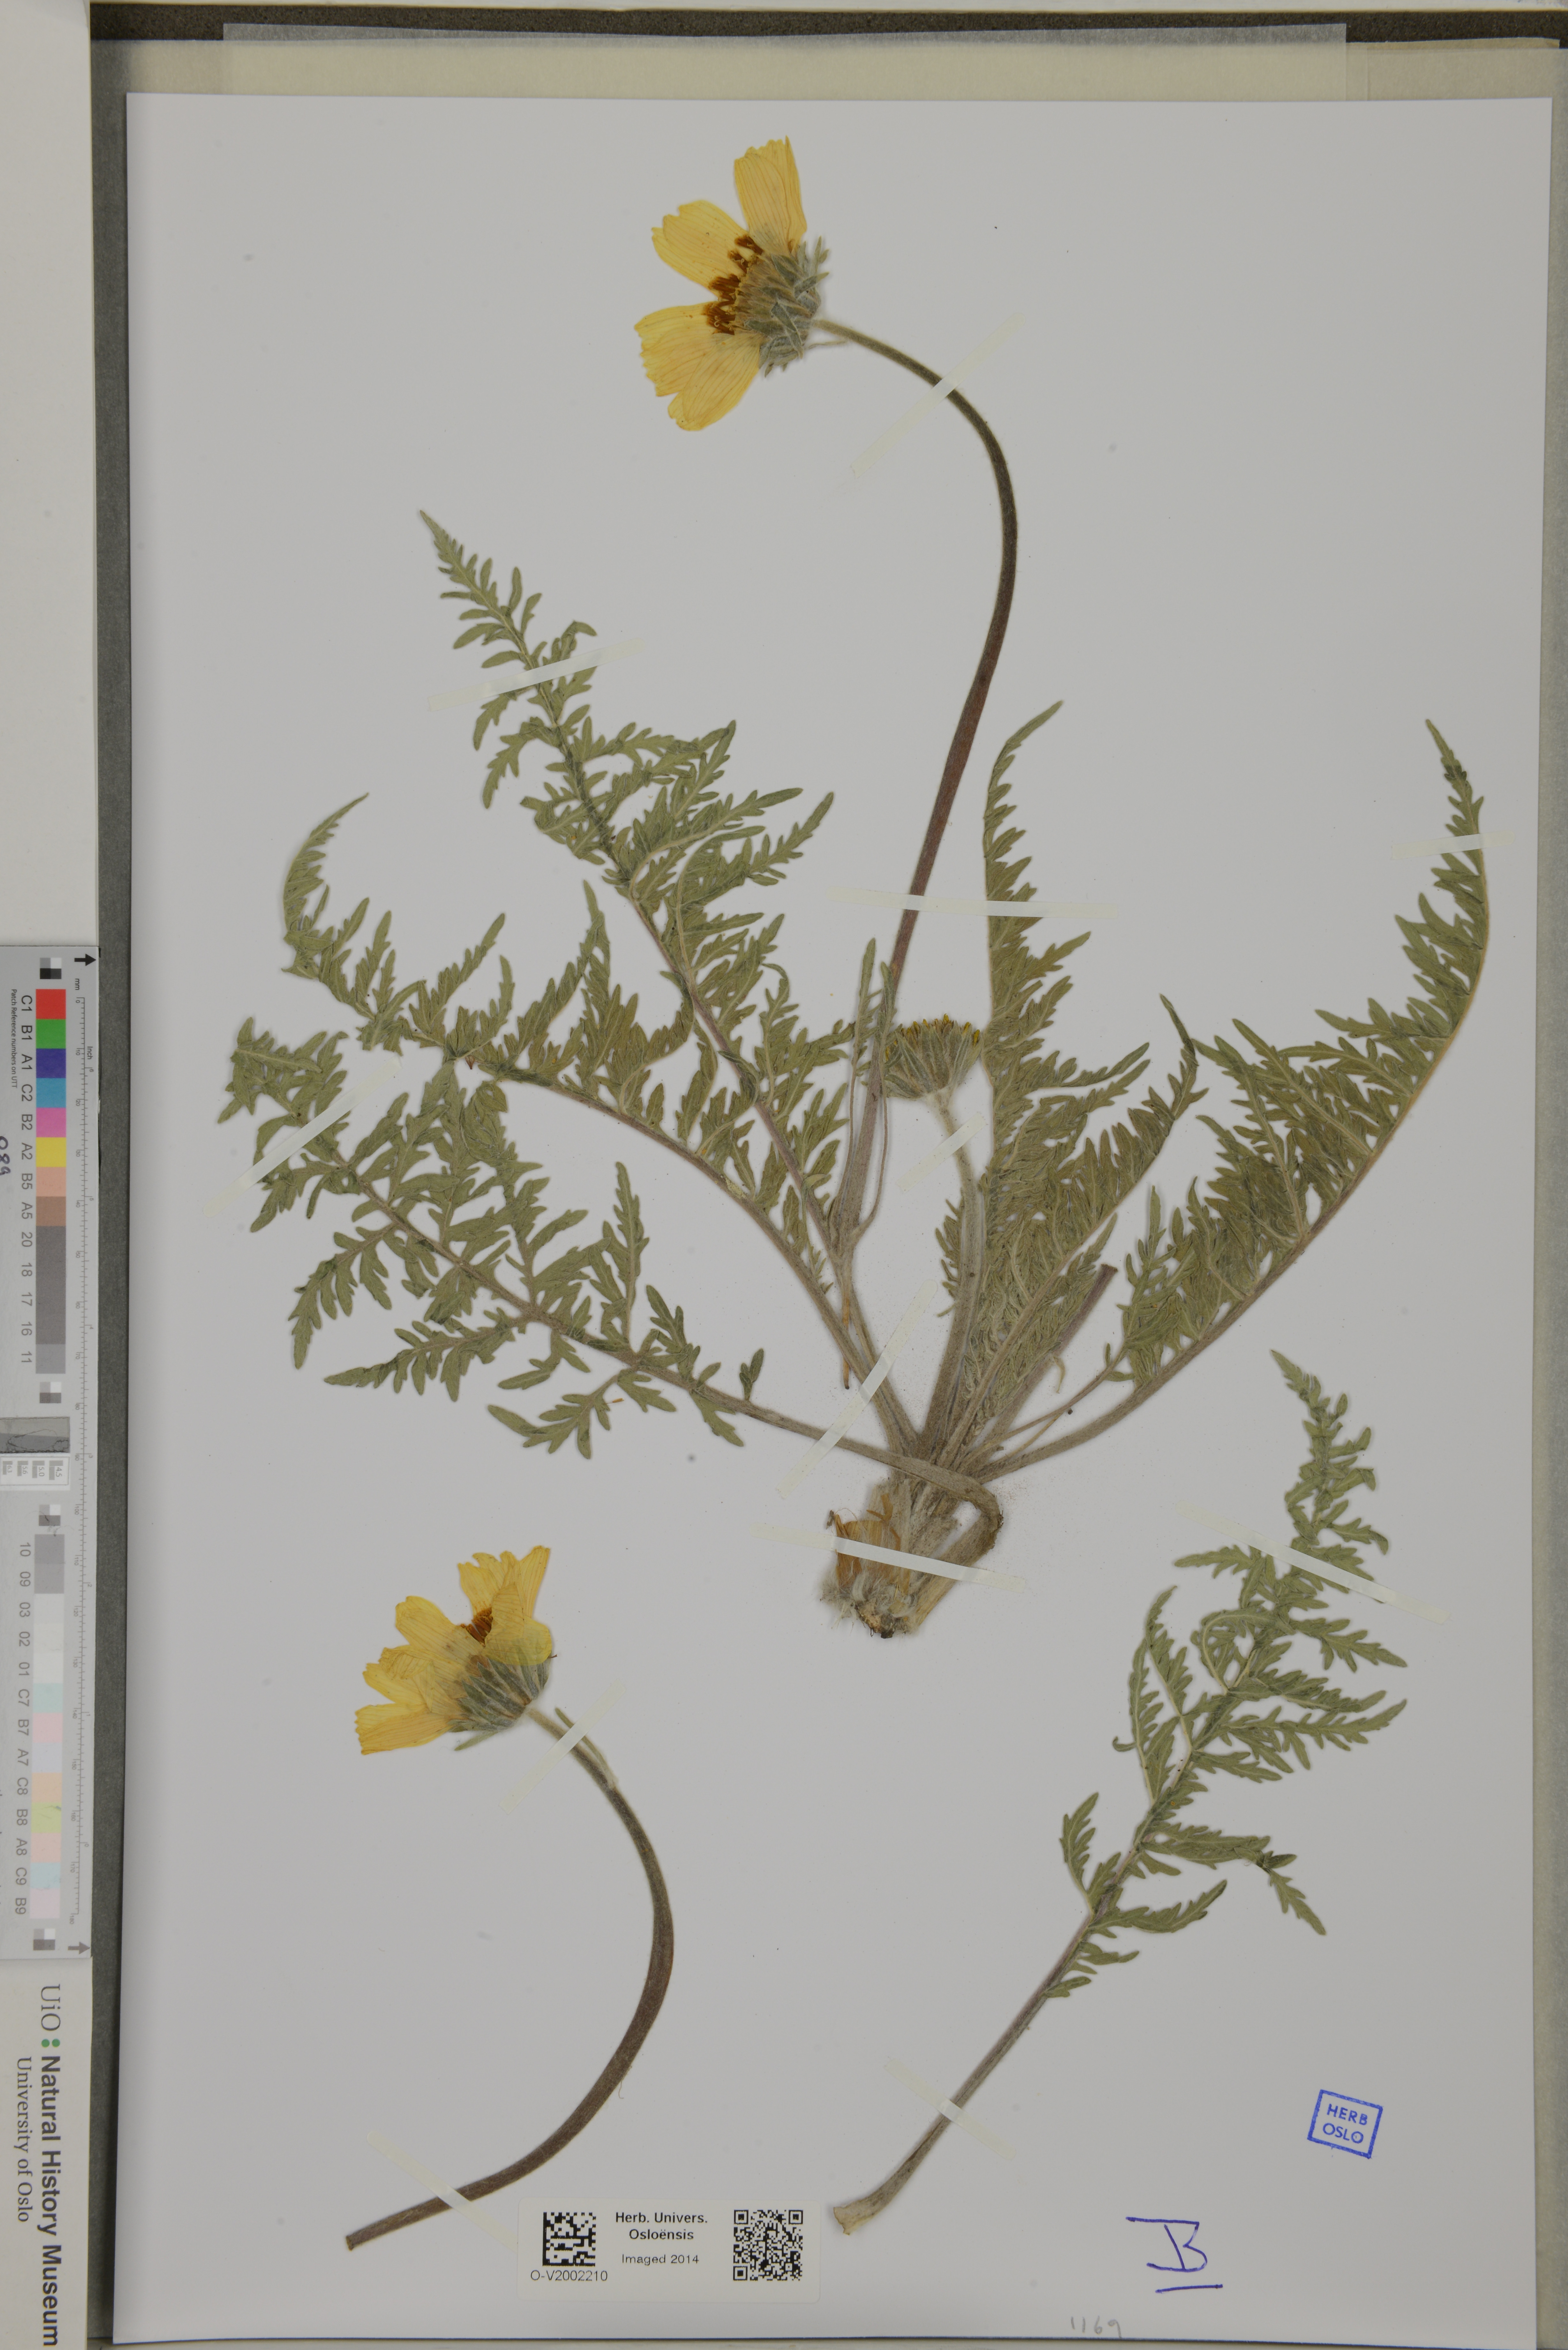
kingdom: Plantae
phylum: Tracheophyta
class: Magnoliopsida
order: Asterales
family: Asteraceae
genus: Balsamorhiza
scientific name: Balsamorhiza macrolepis
